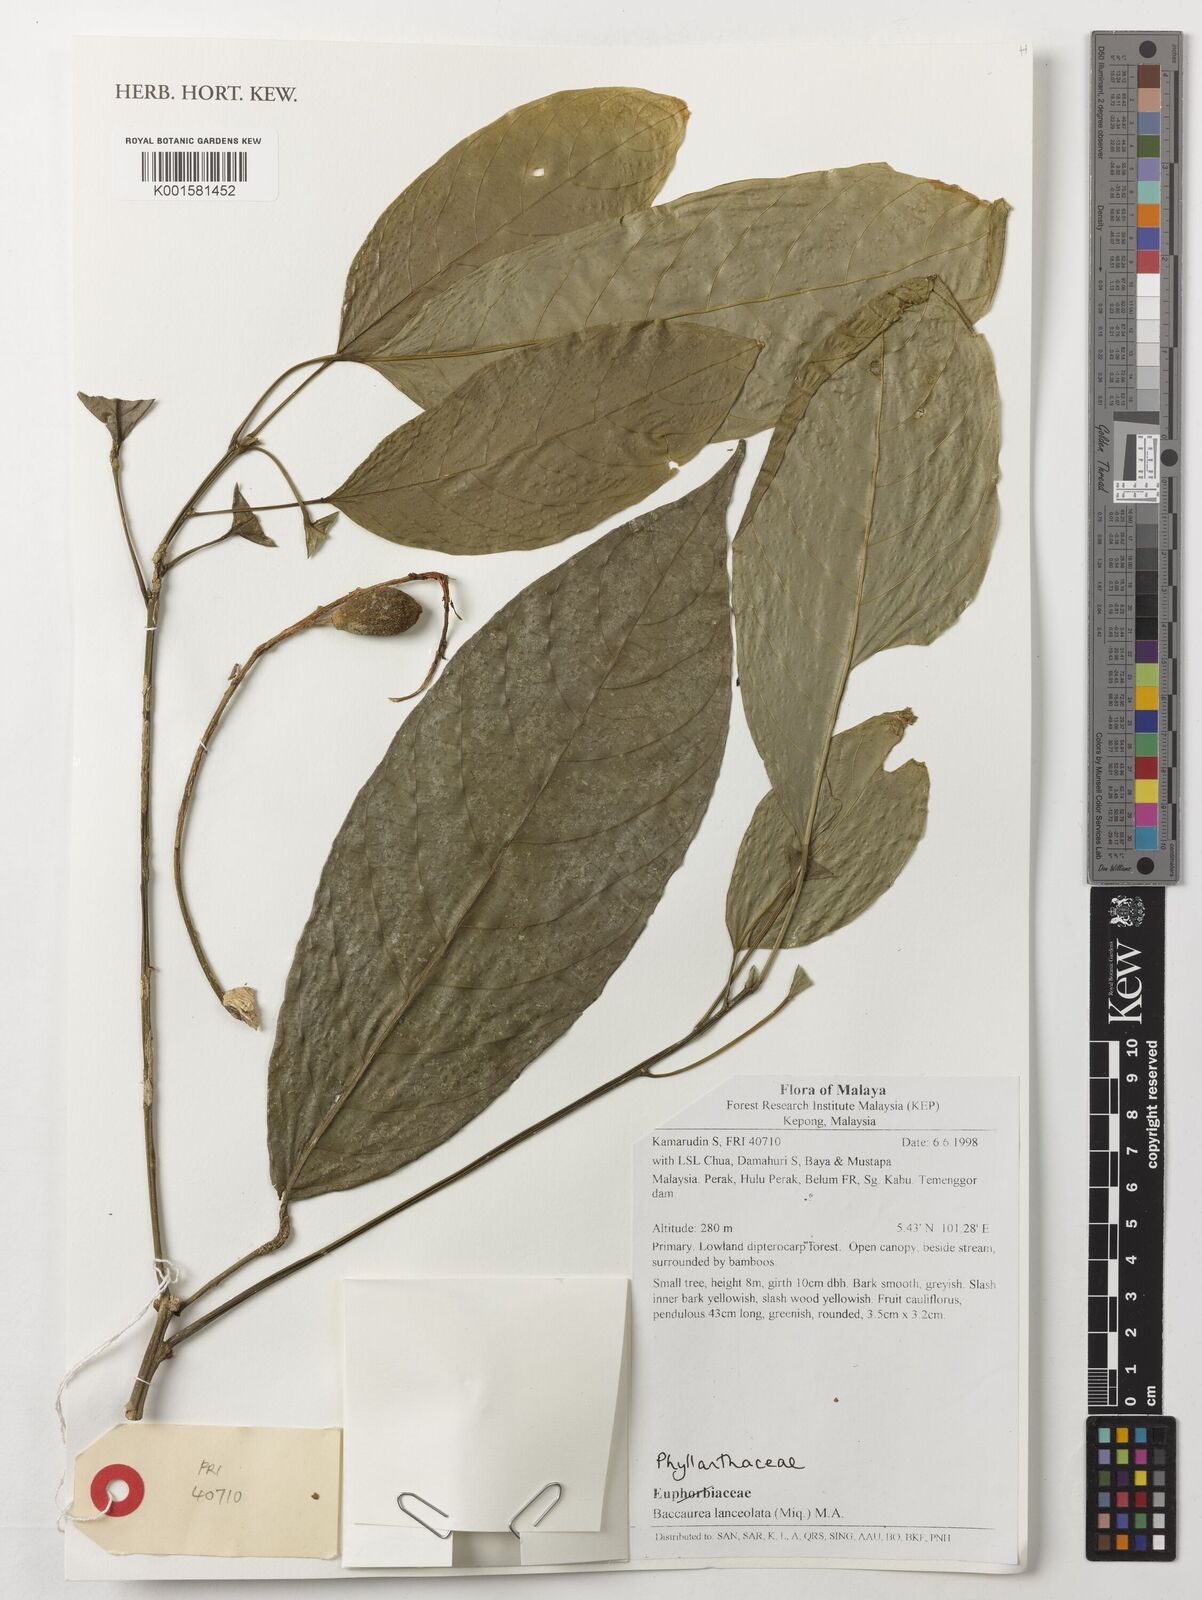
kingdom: Plantae
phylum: Tracheophyta
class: Magnoliopsida
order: Malpighiales
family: Phyllanthaceae
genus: Baccaurea
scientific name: Baccaurea lanceolata
